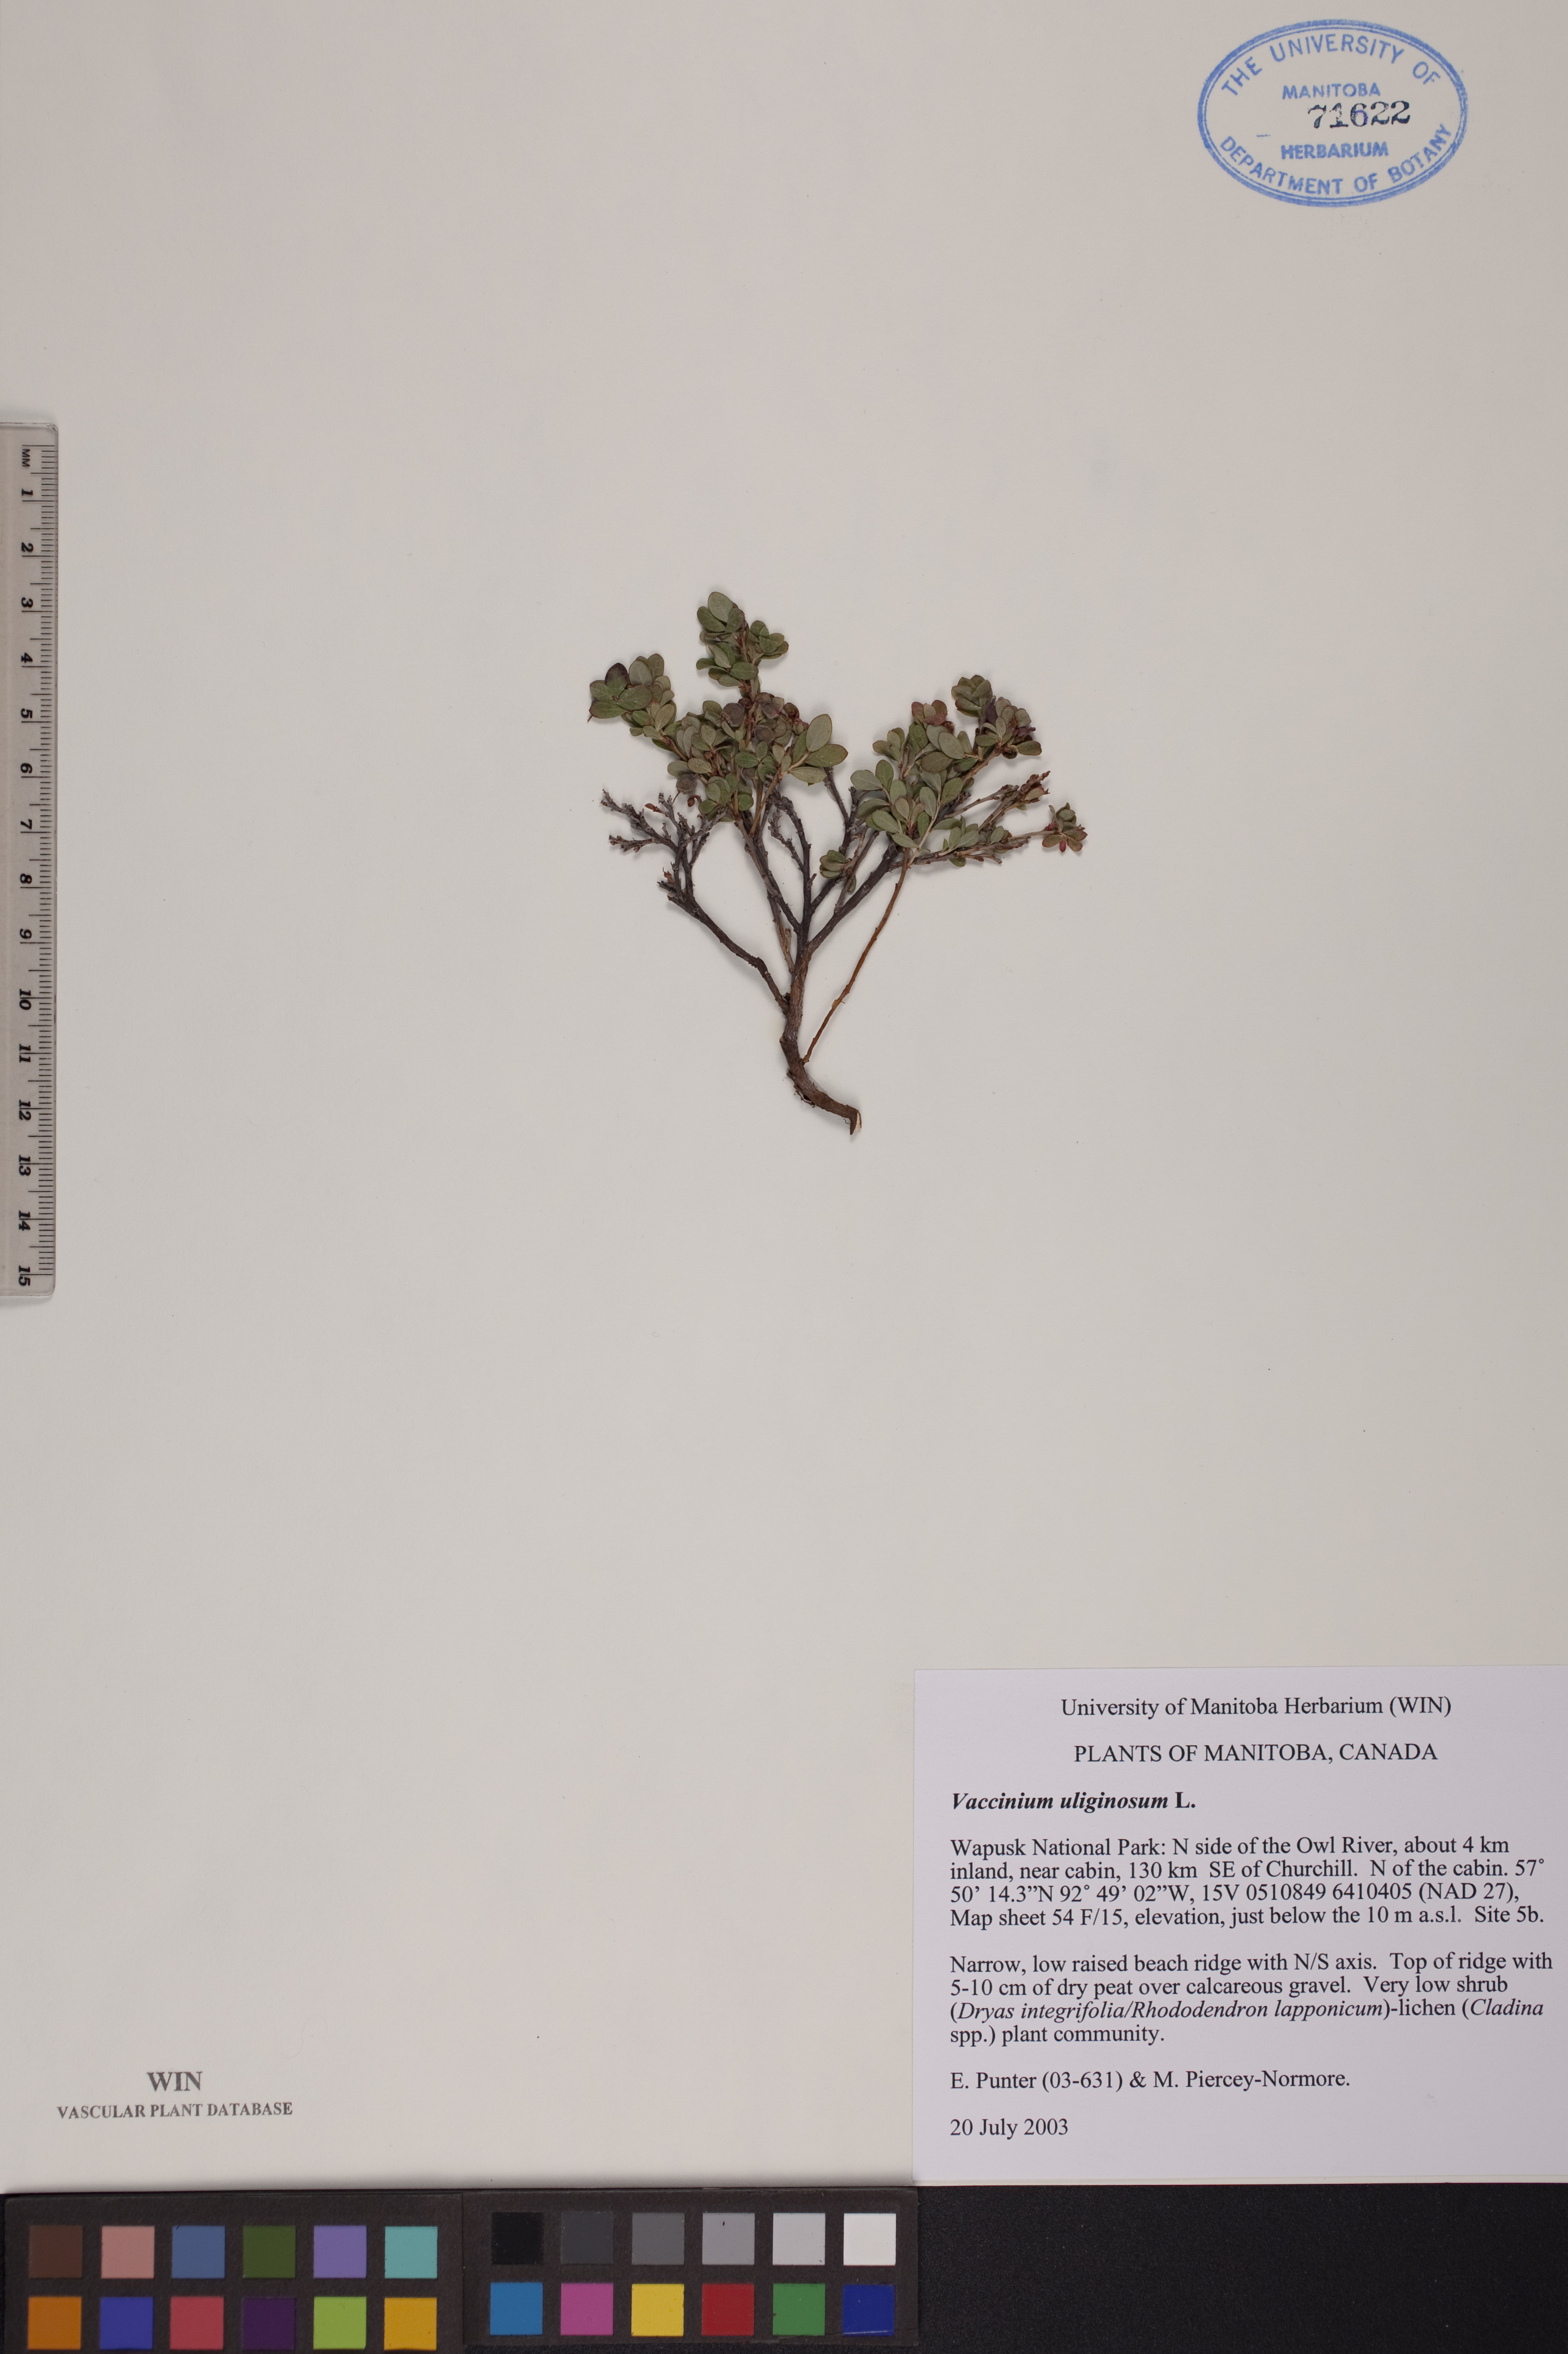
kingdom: Plantae
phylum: Tracheophyta
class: Magnoliopsida
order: Ericales
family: Ericaceae
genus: Vaccinium
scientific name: Vaccinium uliginosum
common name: Bog bilberry
